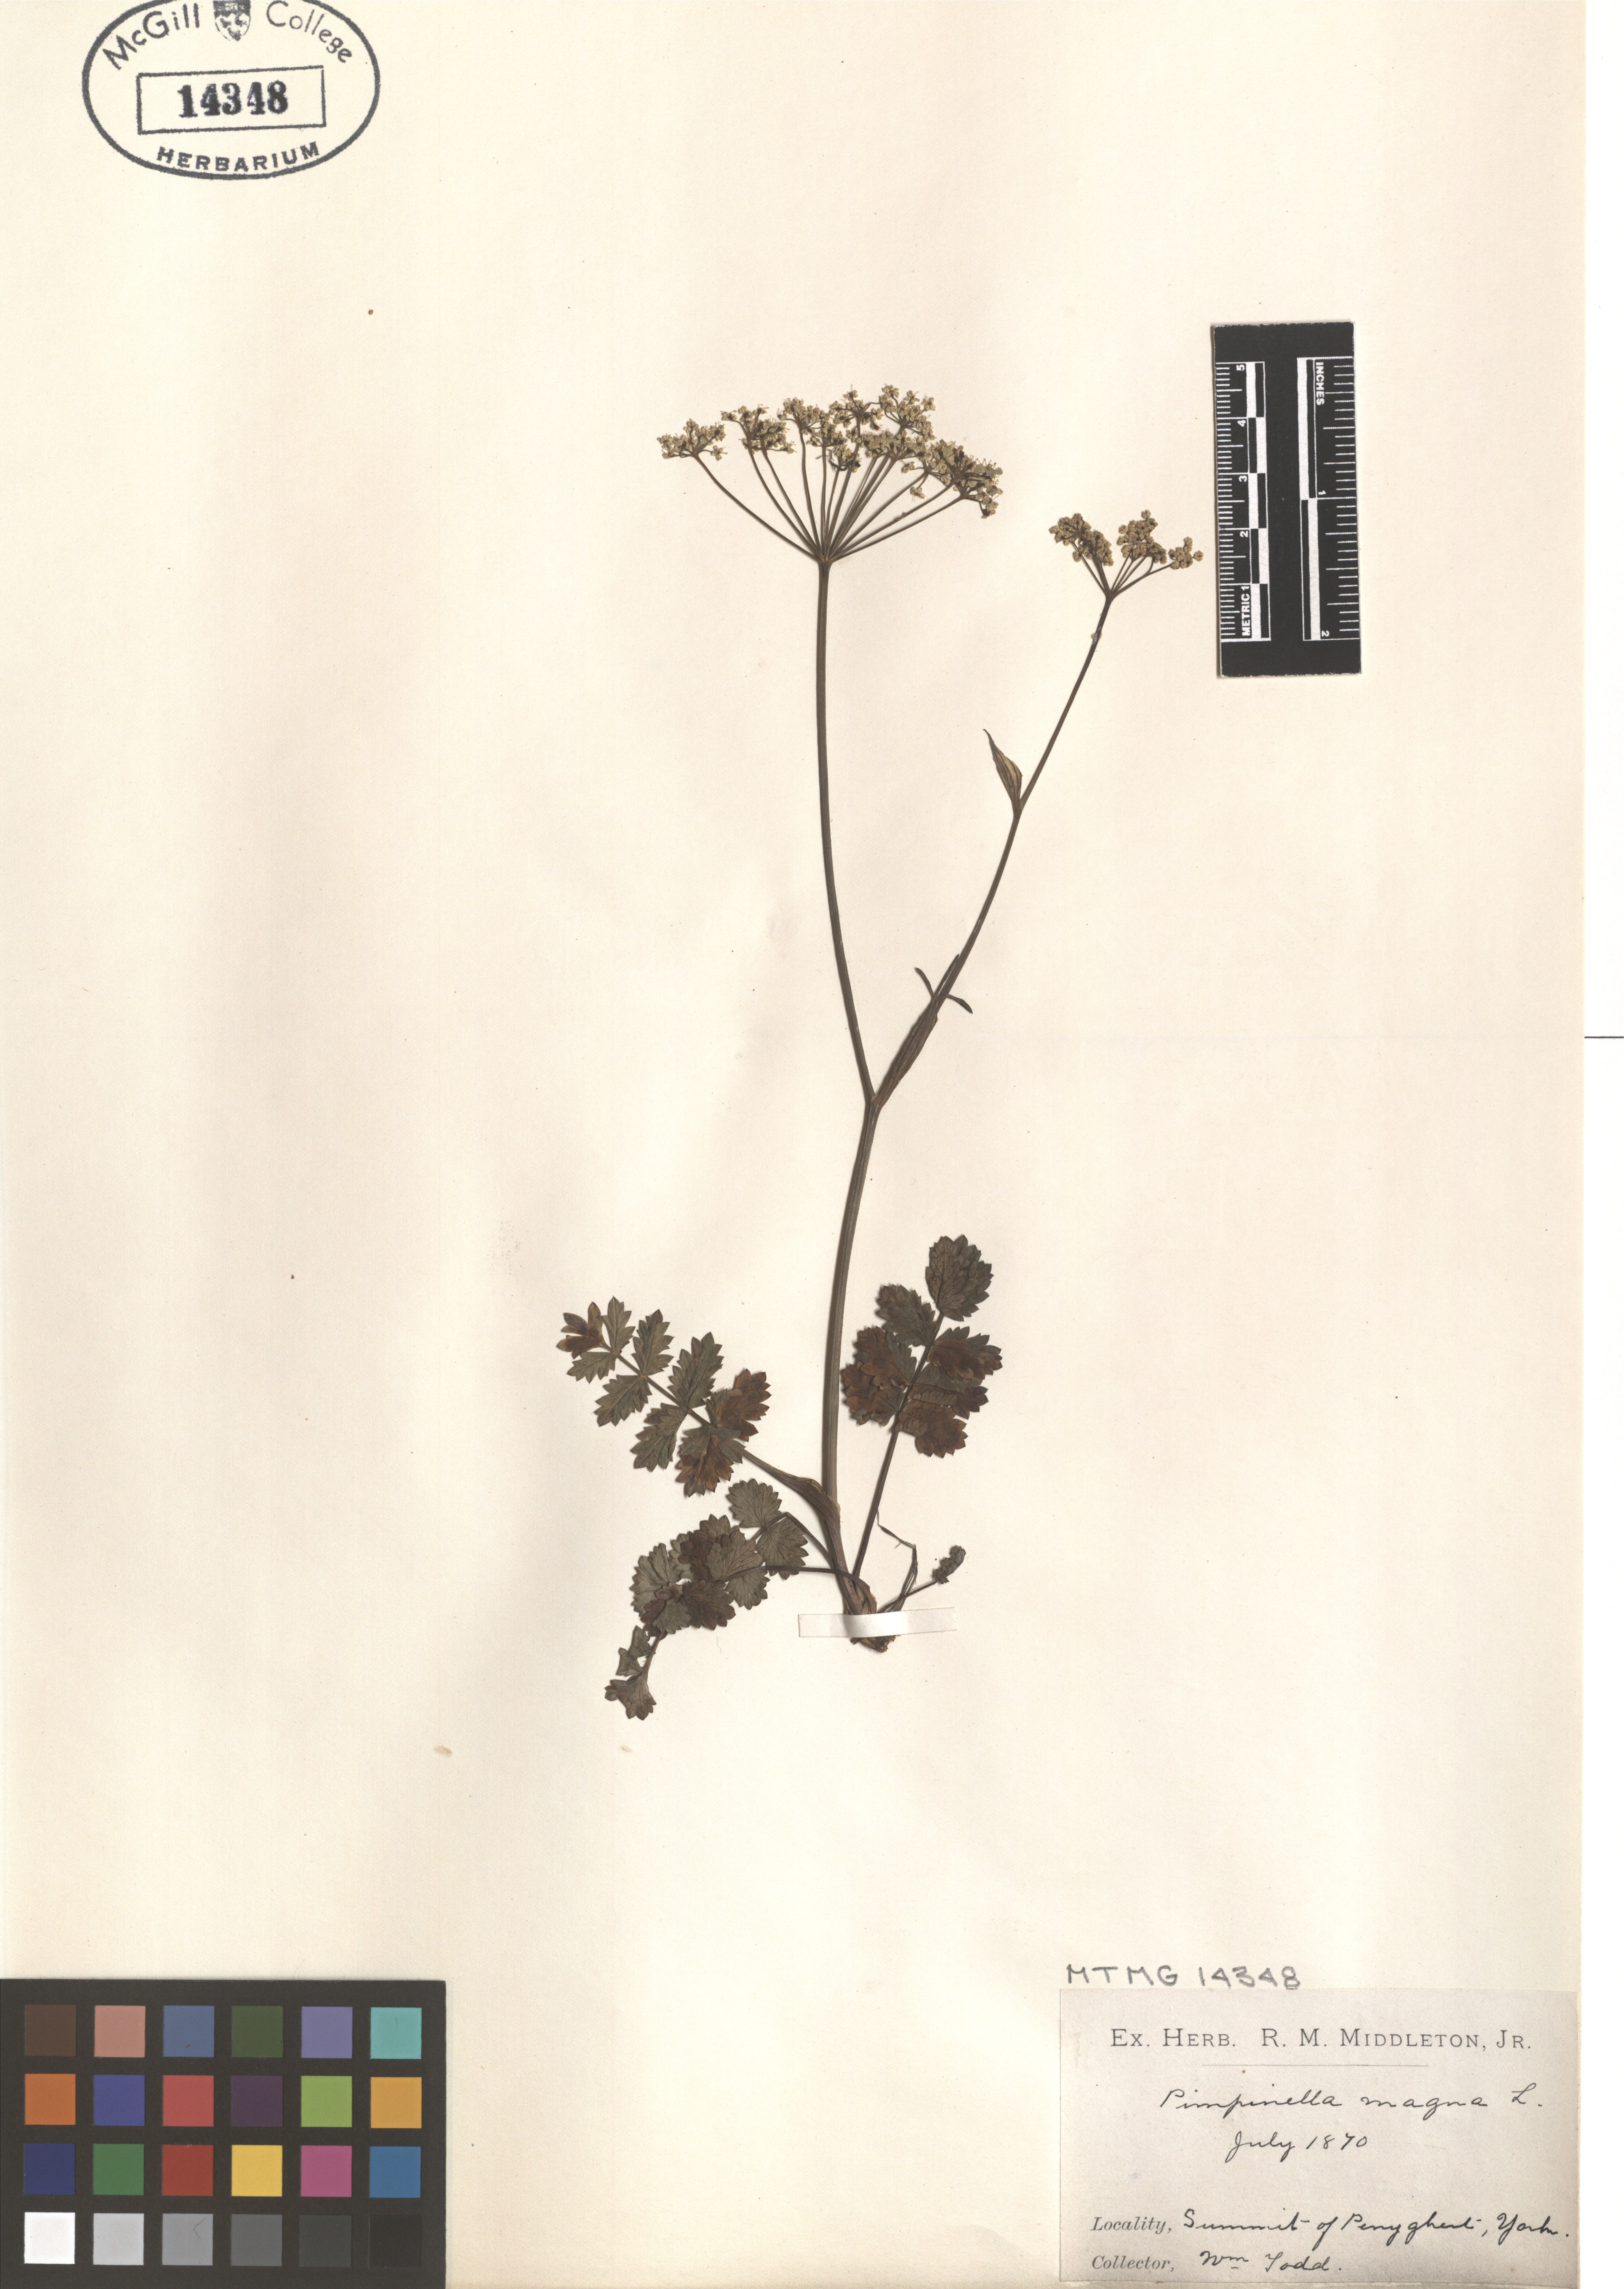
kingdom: Plantae
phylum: Tracheophyta
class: Magnoliopsida
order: Apiales
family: Apiaceae
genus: Pimpinella
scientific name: Pimpinella major
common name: Greater burnet-saxifrage
